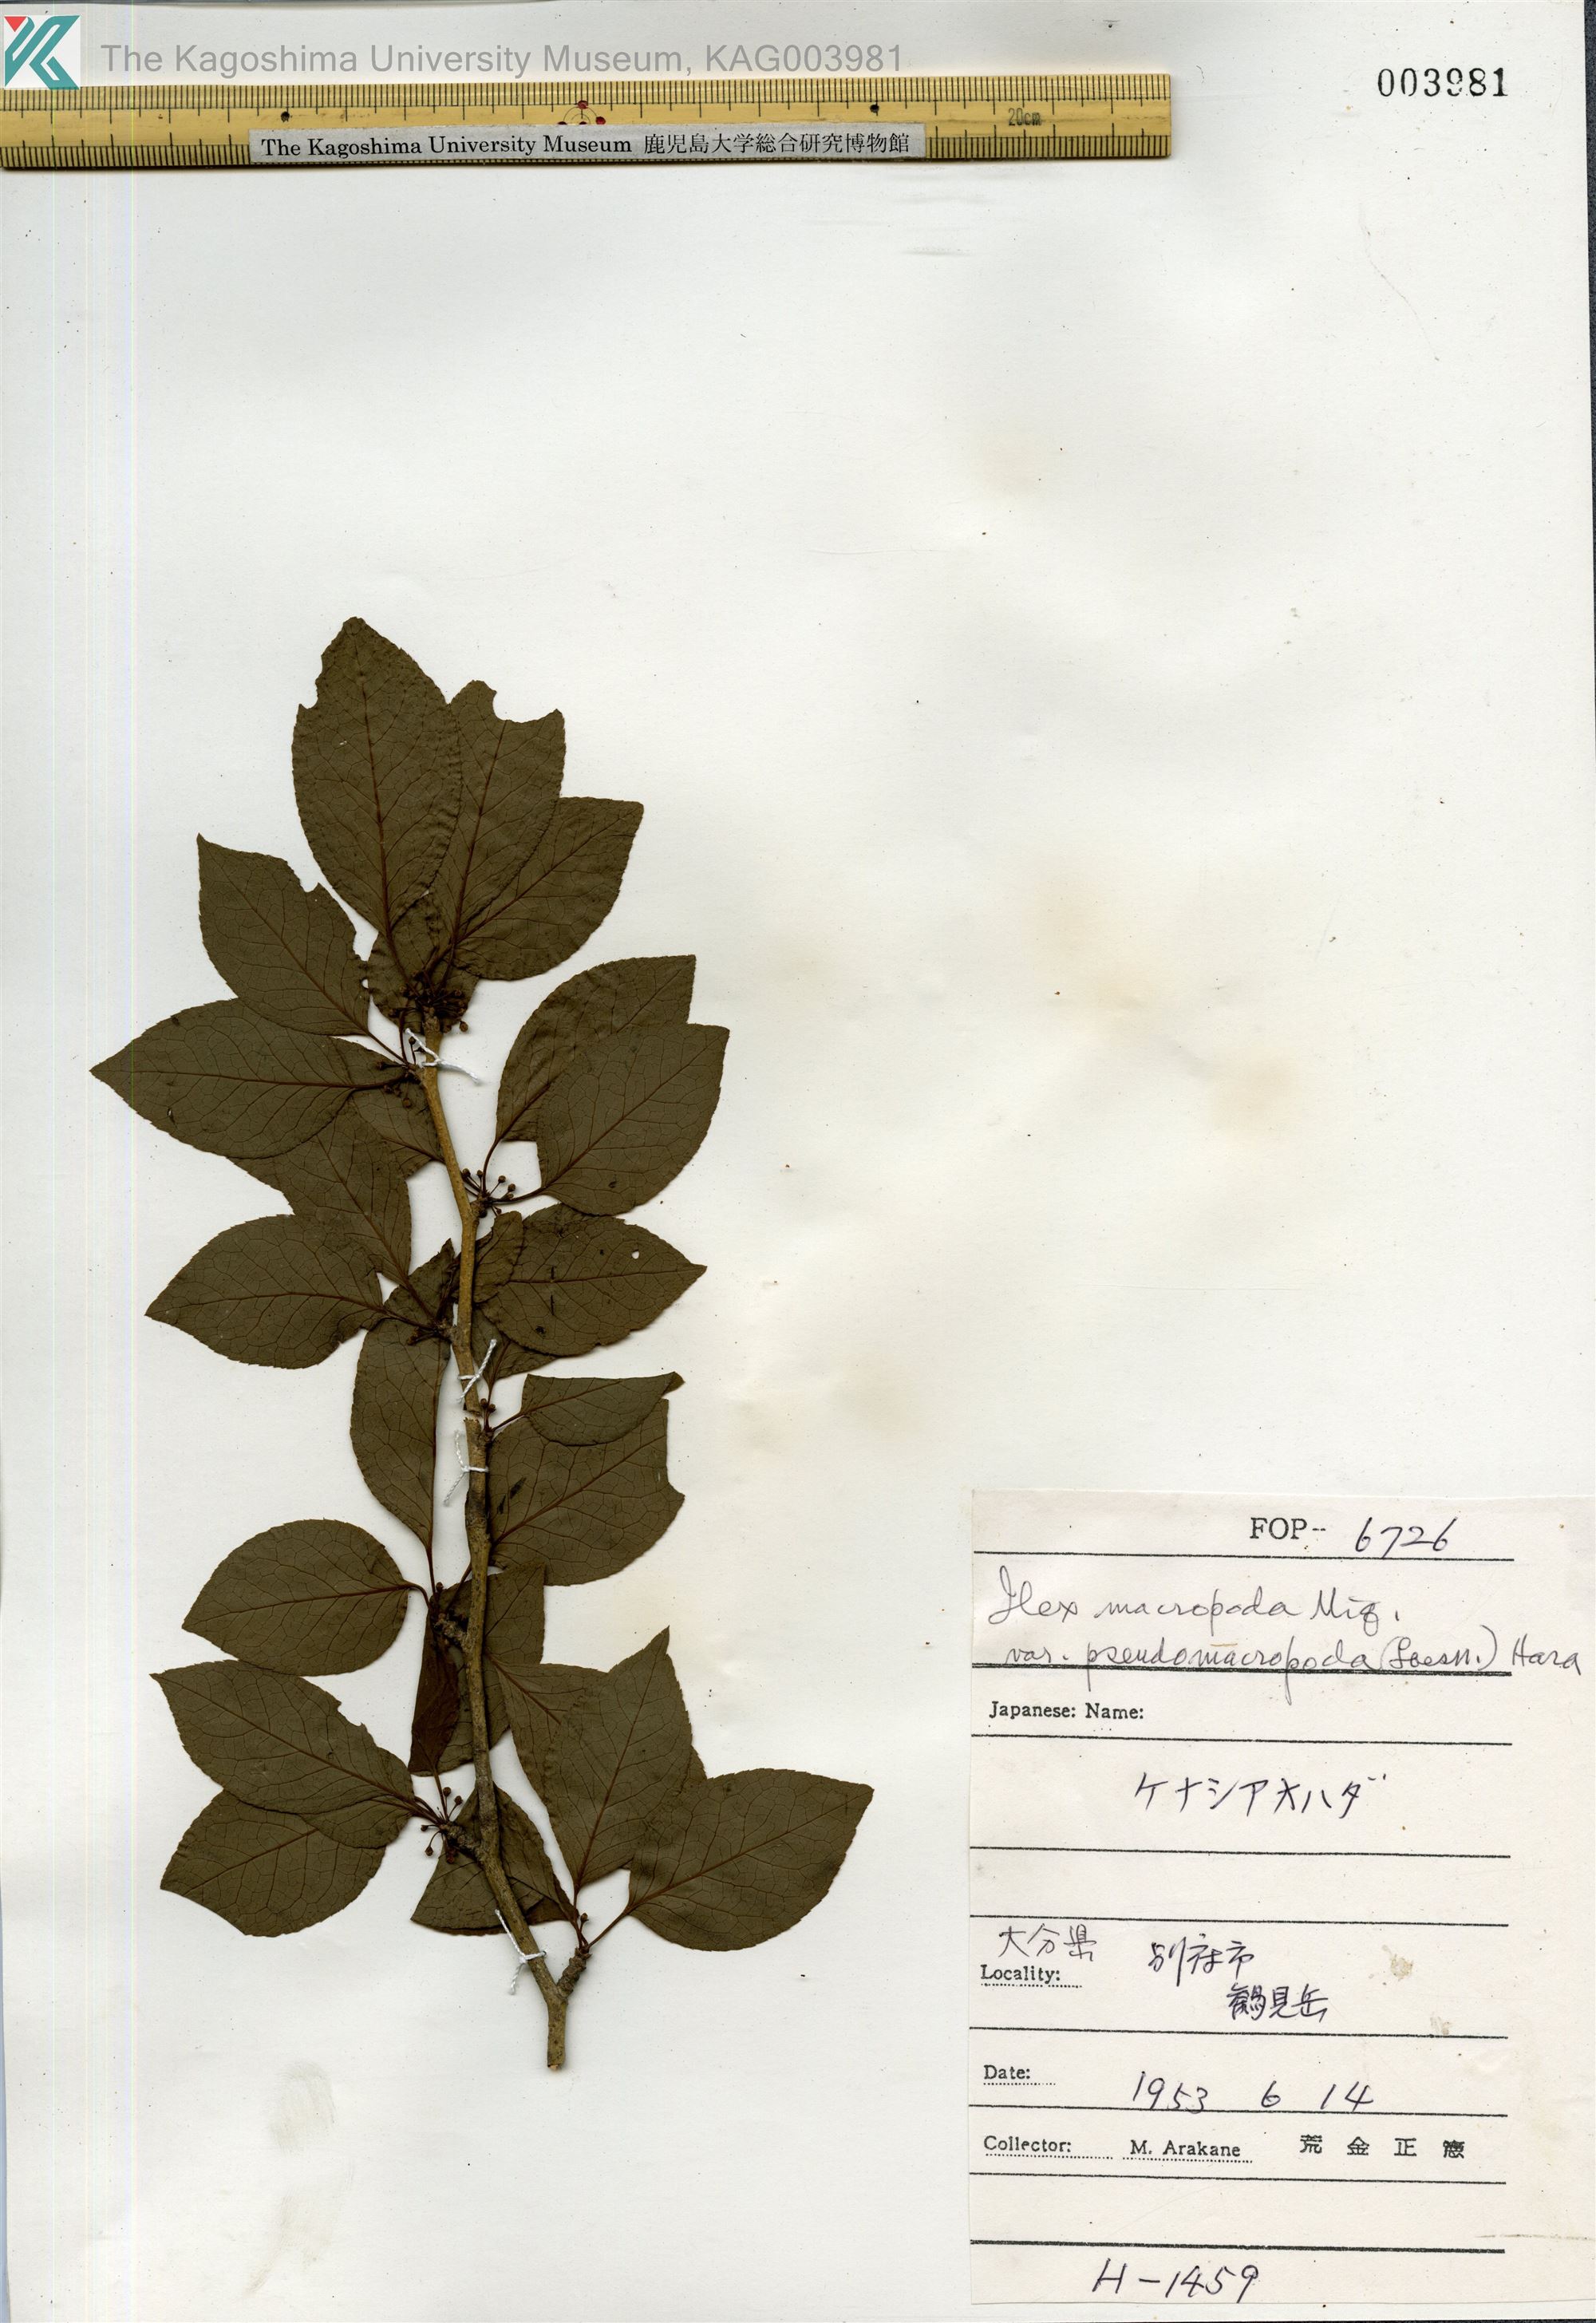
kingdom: Plantae
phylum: Tracheophyta
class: Magnoliopsida
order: Aquifoliales
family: Aquifoliaceae
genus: Ilex
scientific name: Ilex macropoda
